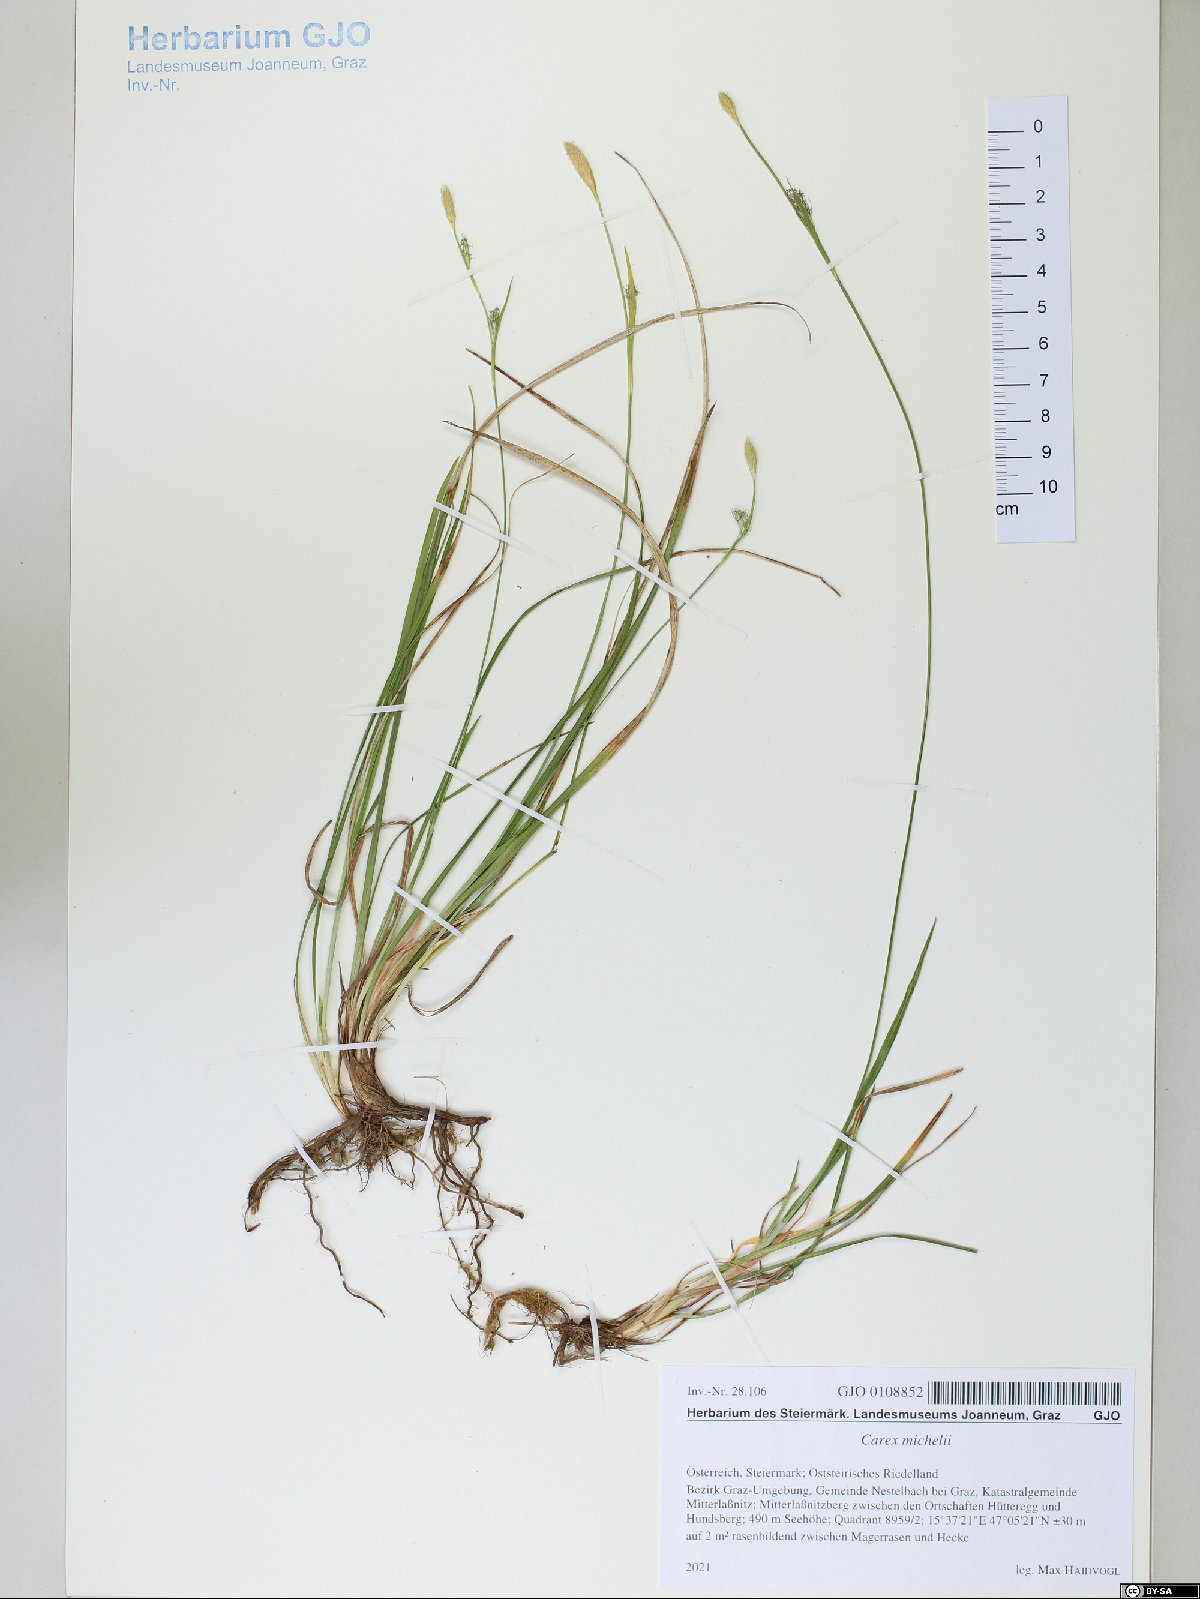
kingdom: Plantae
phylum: Tracheophyta
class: Liliopsida
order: Poales
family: Cyperaceae
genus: Carex
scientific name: Carex michelii
